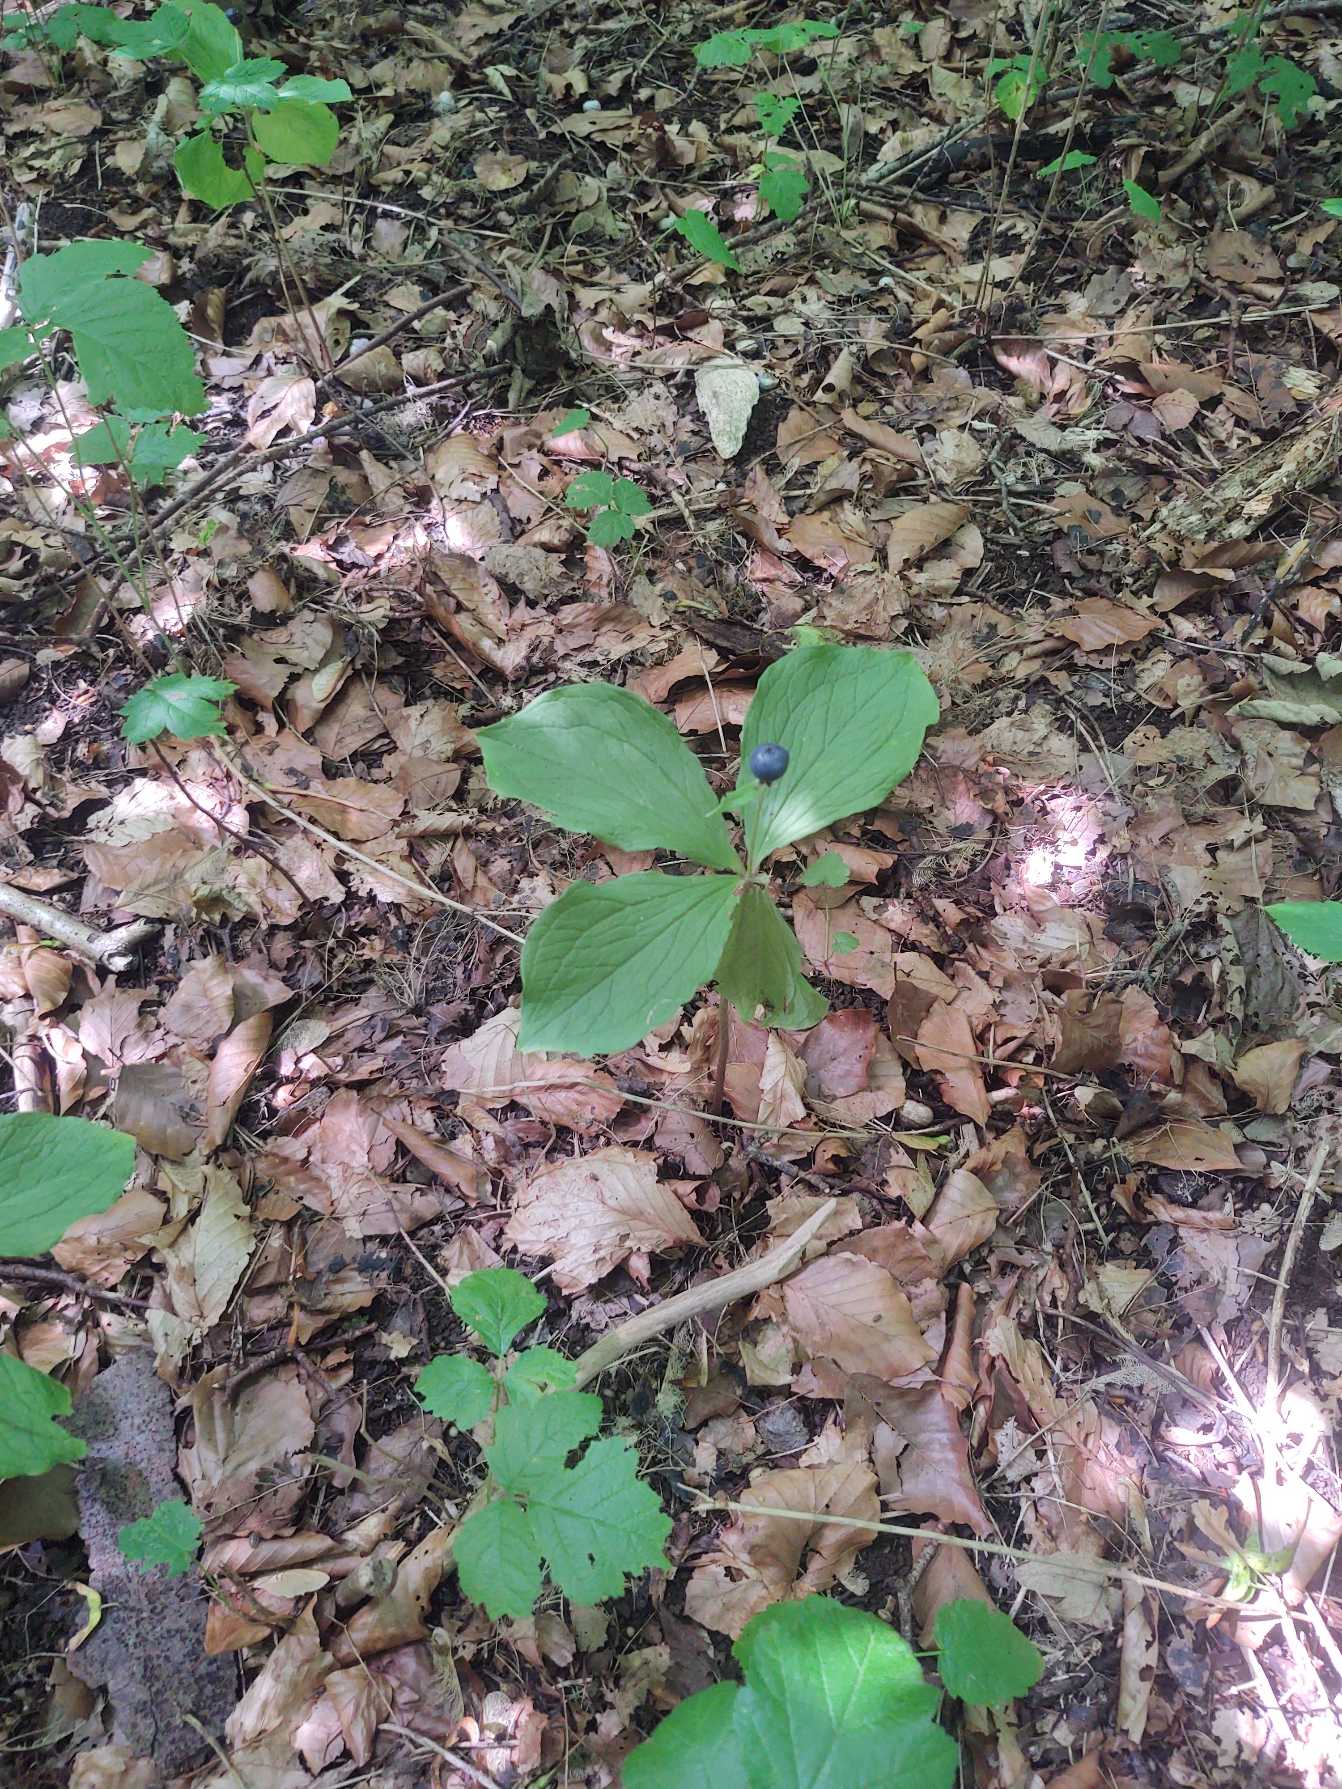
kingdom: Plantae
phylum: Tracheophyta
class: Liliopsida
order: Liliales
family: Melanthiaceae
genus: Paris
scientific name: Paris quadrifolia
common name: Firblad
